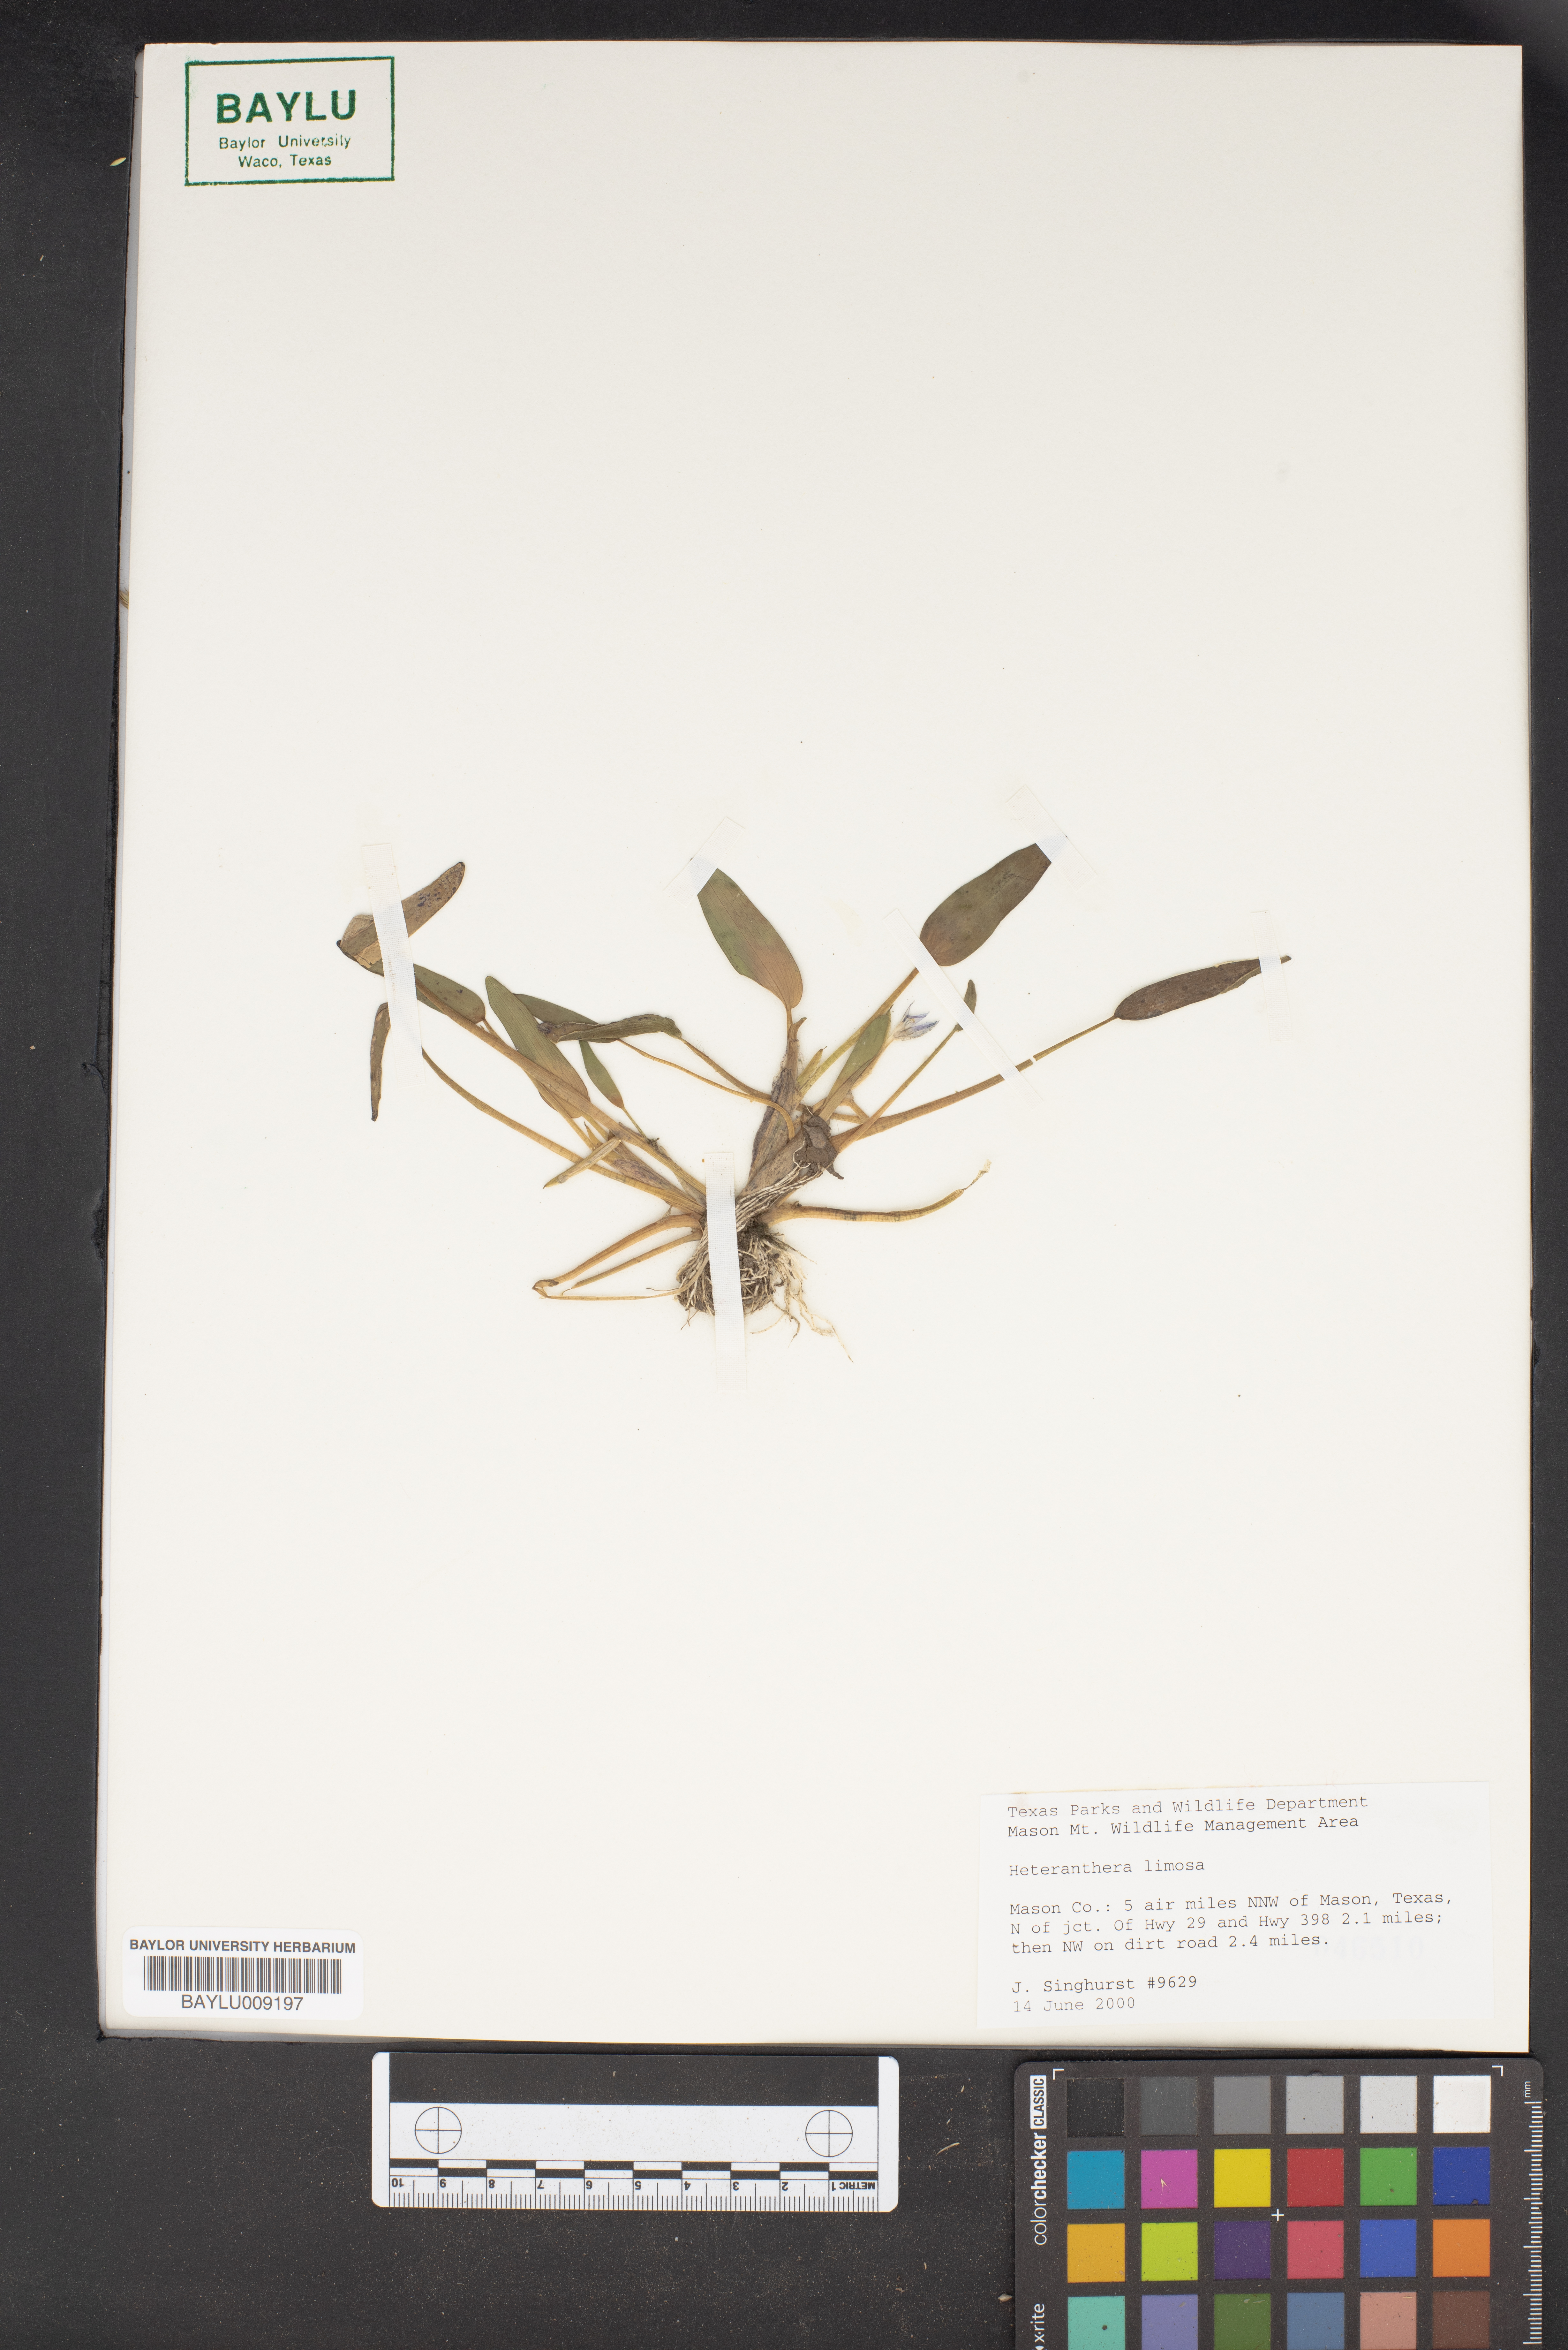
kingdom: Plantae
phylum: Tracheophyta
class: Liliopsida
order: Commelinales
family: Pontederiaceae
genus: Heteranthera
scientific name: Heteranthera limosa
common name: Blue mud-plantain
